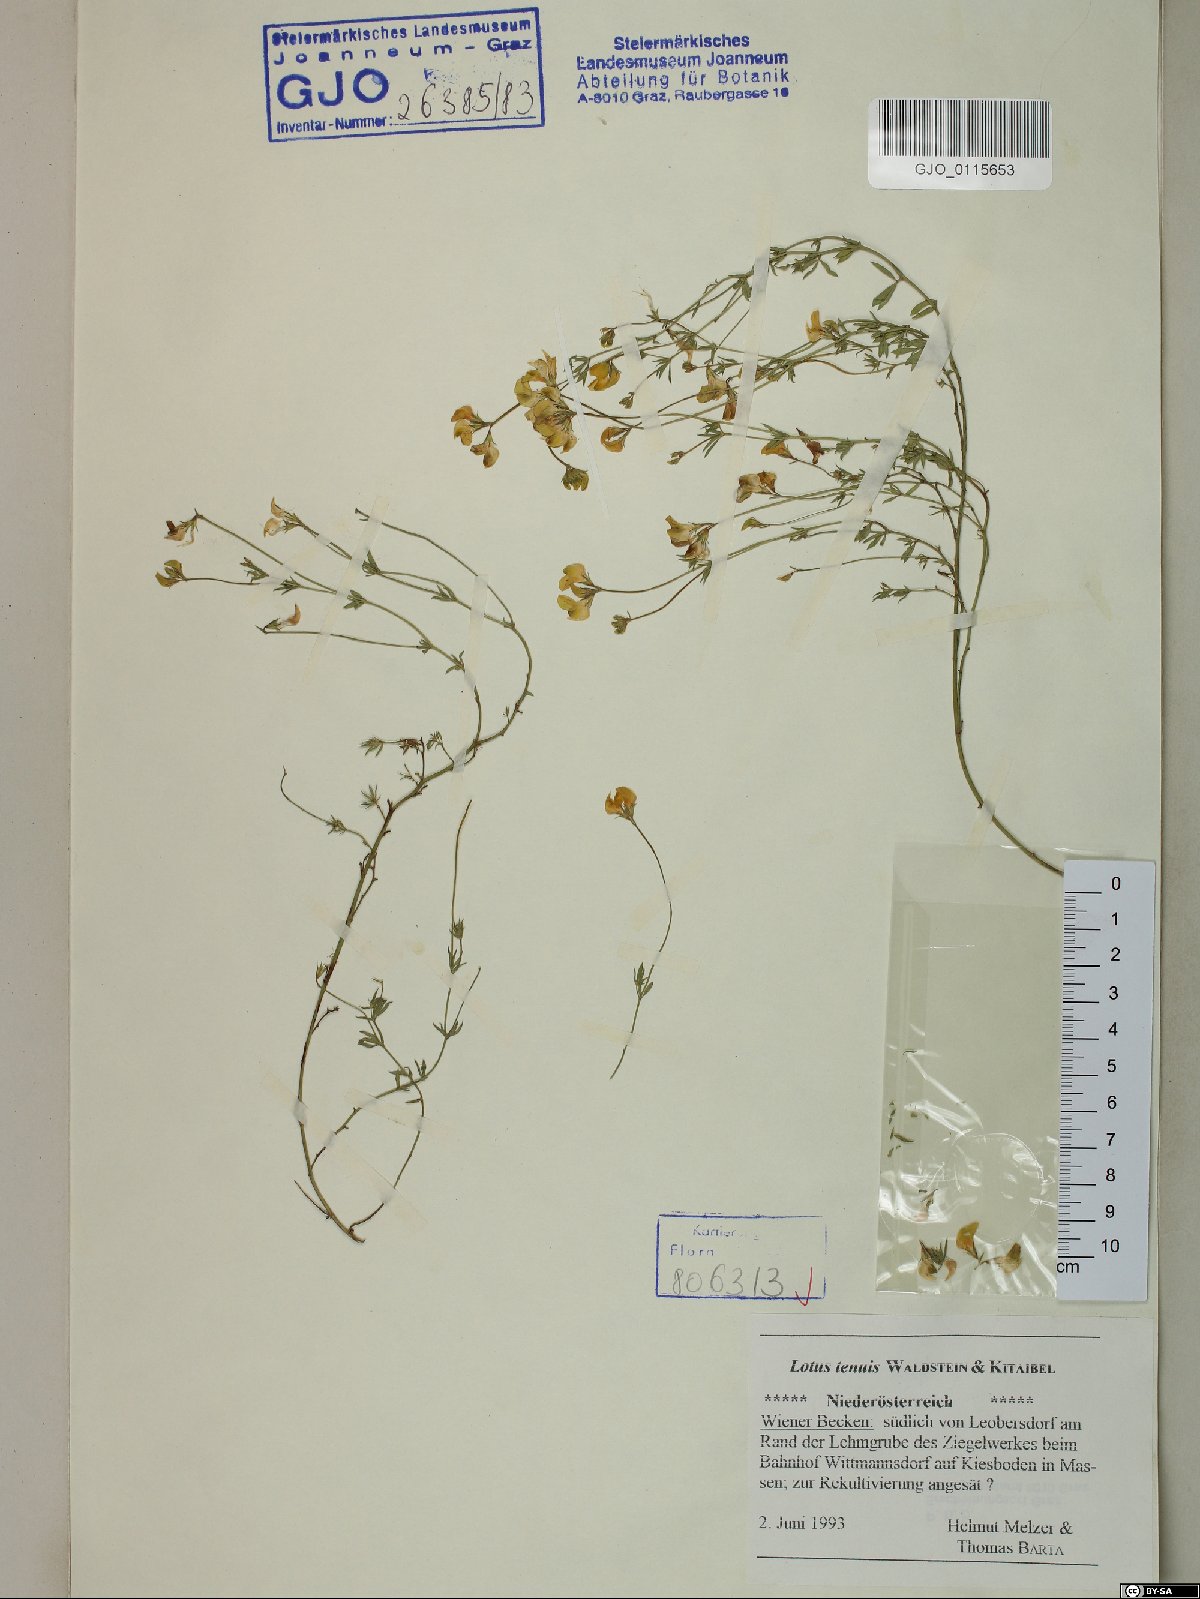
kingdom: Plantae
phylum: Tracheophyta
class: Magnoliopsida
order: Fabales
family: Fabaceae
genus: Lotus
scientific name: Lotus tenuis
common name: Narrow-leaved bird's-foot-trefoil
